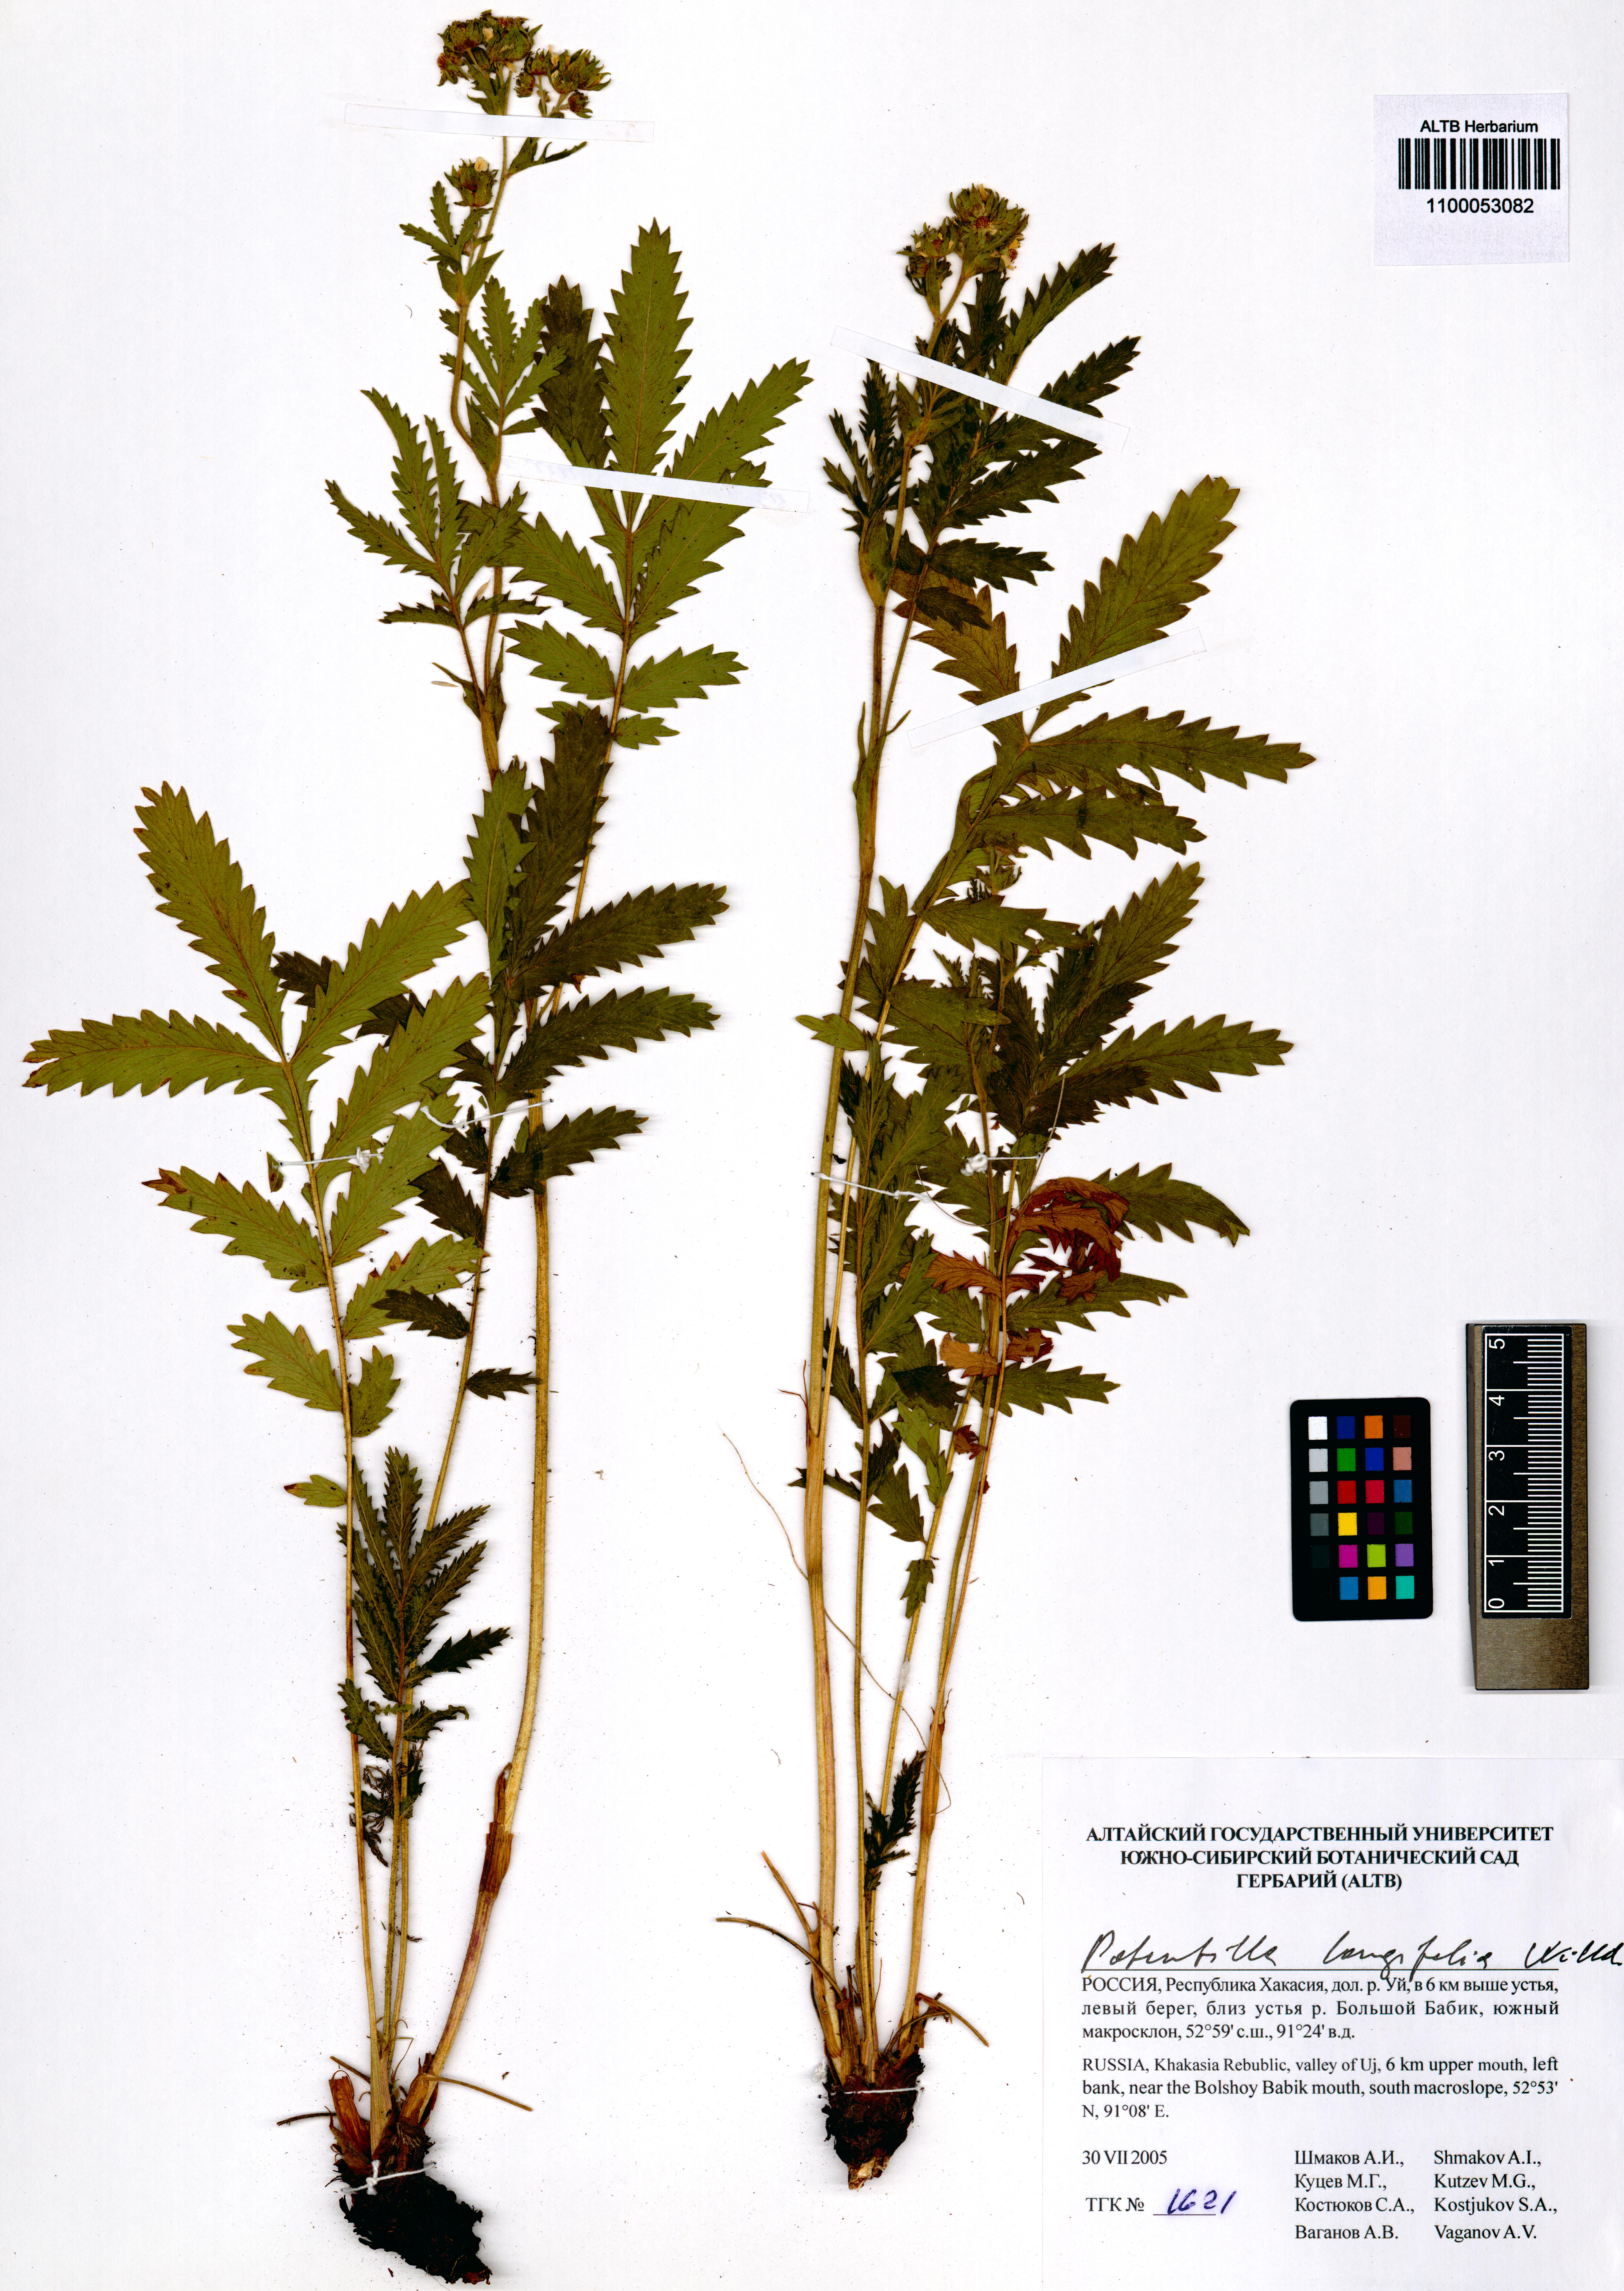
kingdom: Plantae
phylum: Tracheophyta
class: Magnoliopsida
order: Rosales
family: Rosaceae
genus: Potentilla
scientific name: Potentilla longifolia
